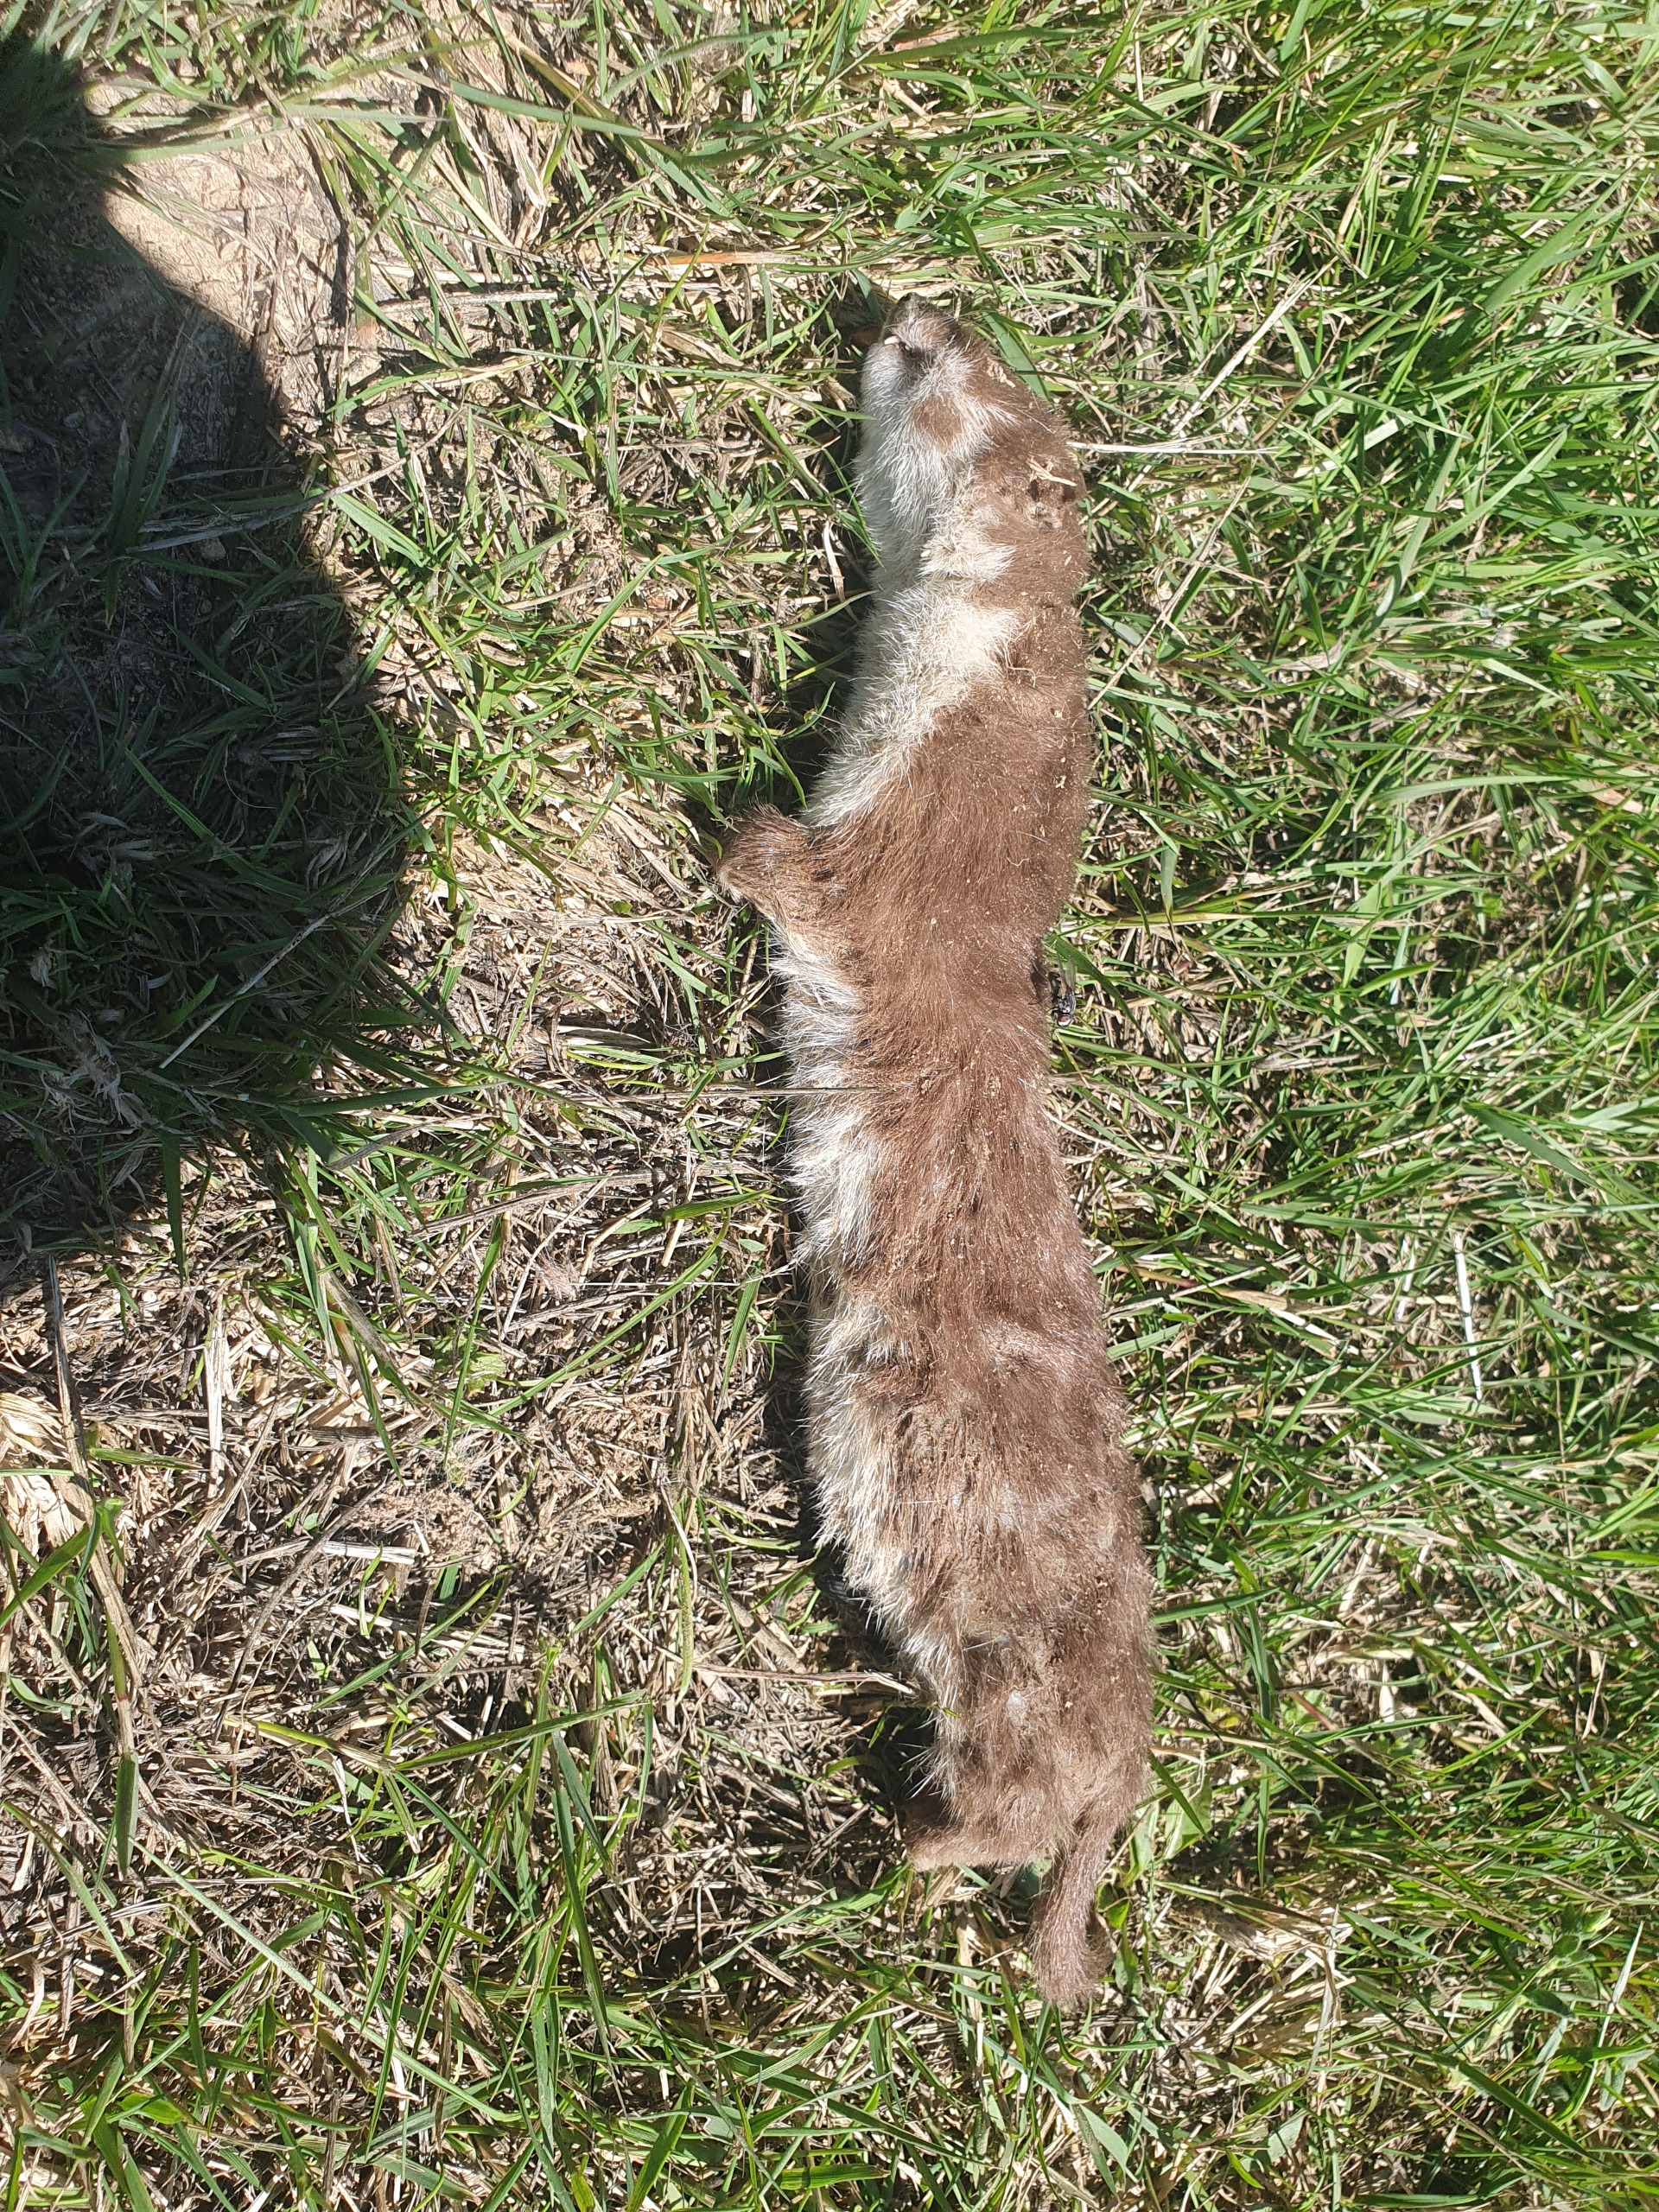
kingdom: Animalia
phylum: Chordata
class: Mammalia
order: Carnivora
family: Mustelidae
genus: Mustela
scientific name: Mustela nivalis
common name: Brud
